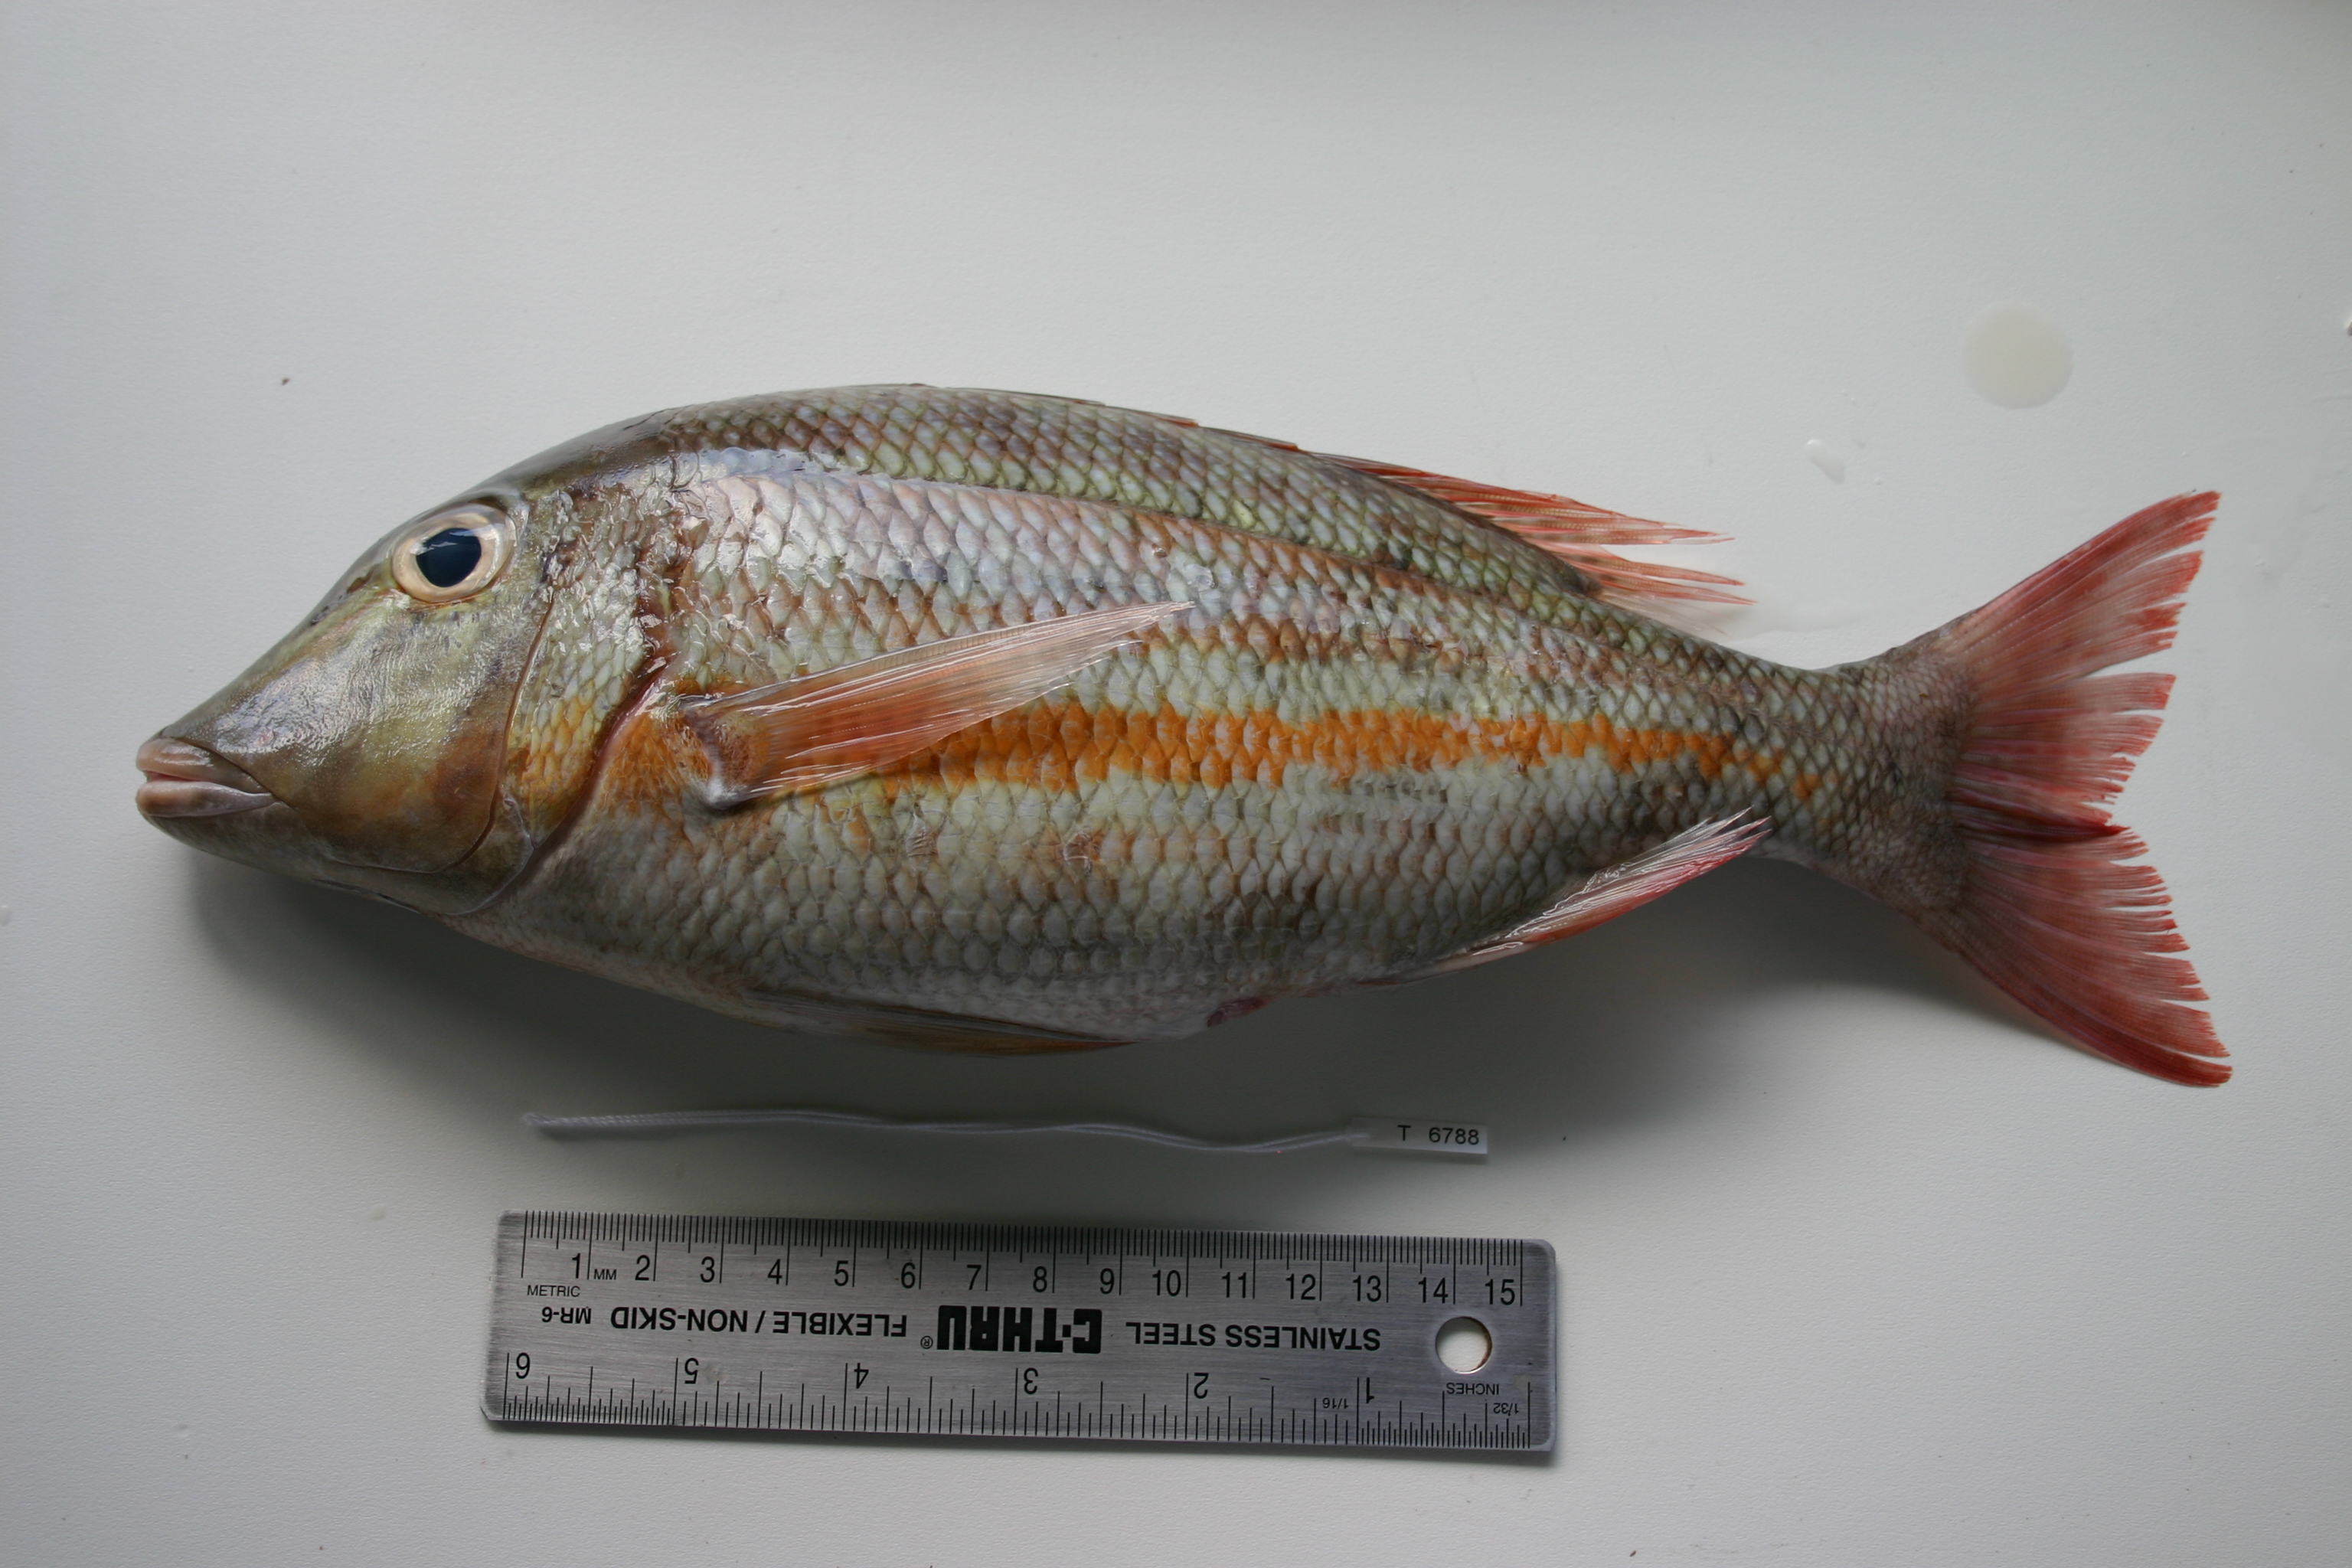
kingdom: Animalia
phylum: Chordata
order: Perciformes
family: Lethrinidae
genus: Lethrinus
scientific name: Lethrinus obsoletus
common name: Orange-striped emperor
